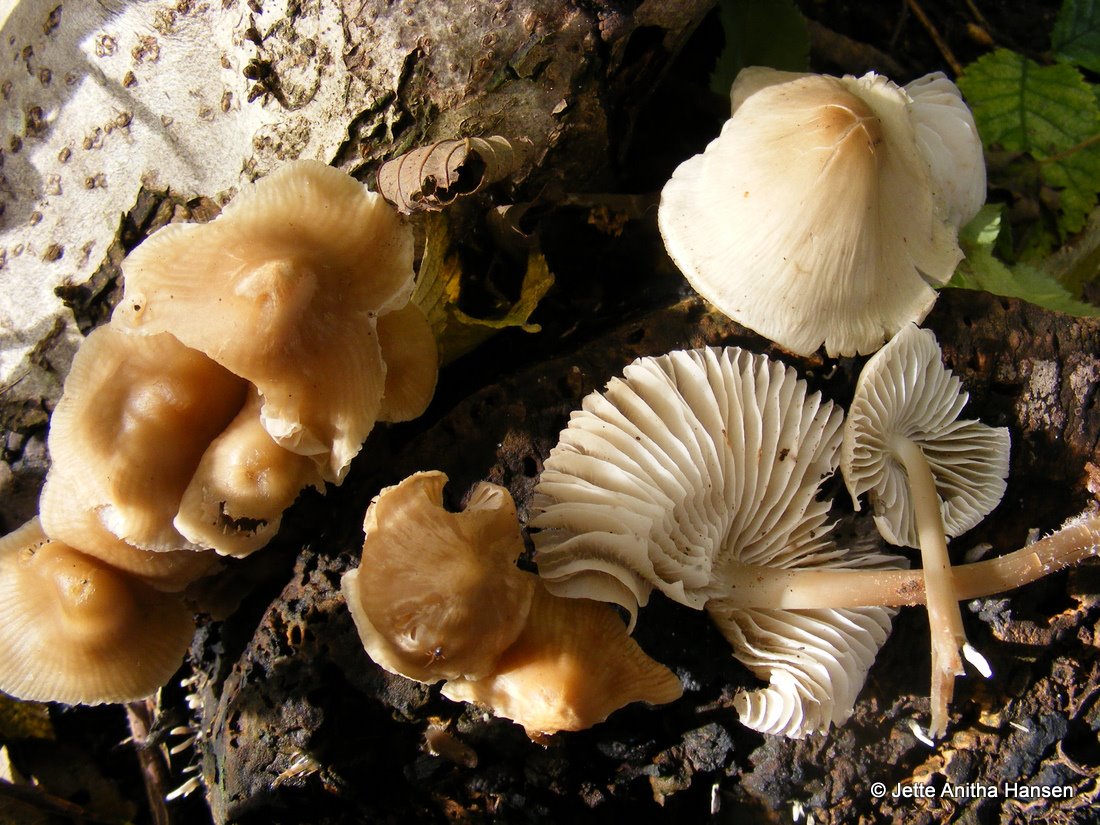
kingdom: Fungi
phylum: Basidiomycota
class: Agaricomycetes
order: Agaricales
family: Mycenaceae
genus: Mycena
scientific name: Mycena galericulata
